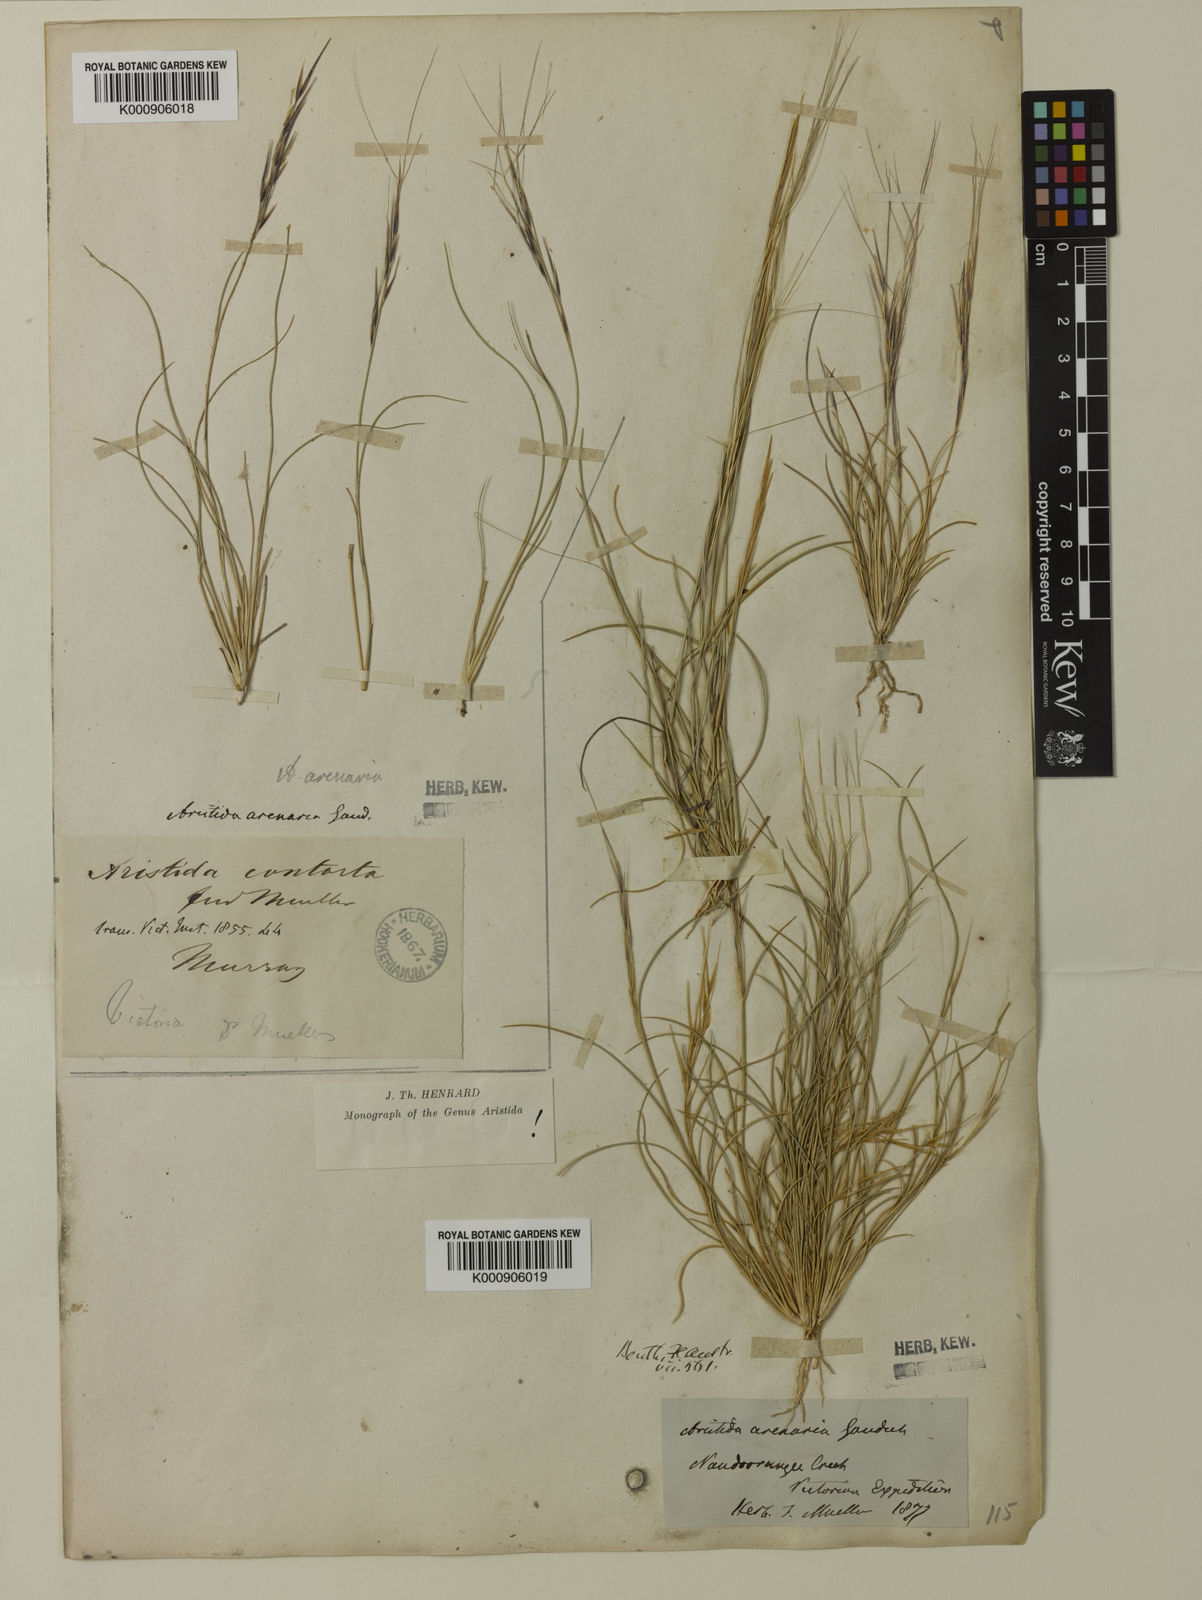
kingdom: Plantae
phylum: Tracheophyta
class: Liliopsida
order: Poales
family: Poaceae
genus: Aristida
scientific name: Aristida contorta
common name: Bunch kerosene grass
